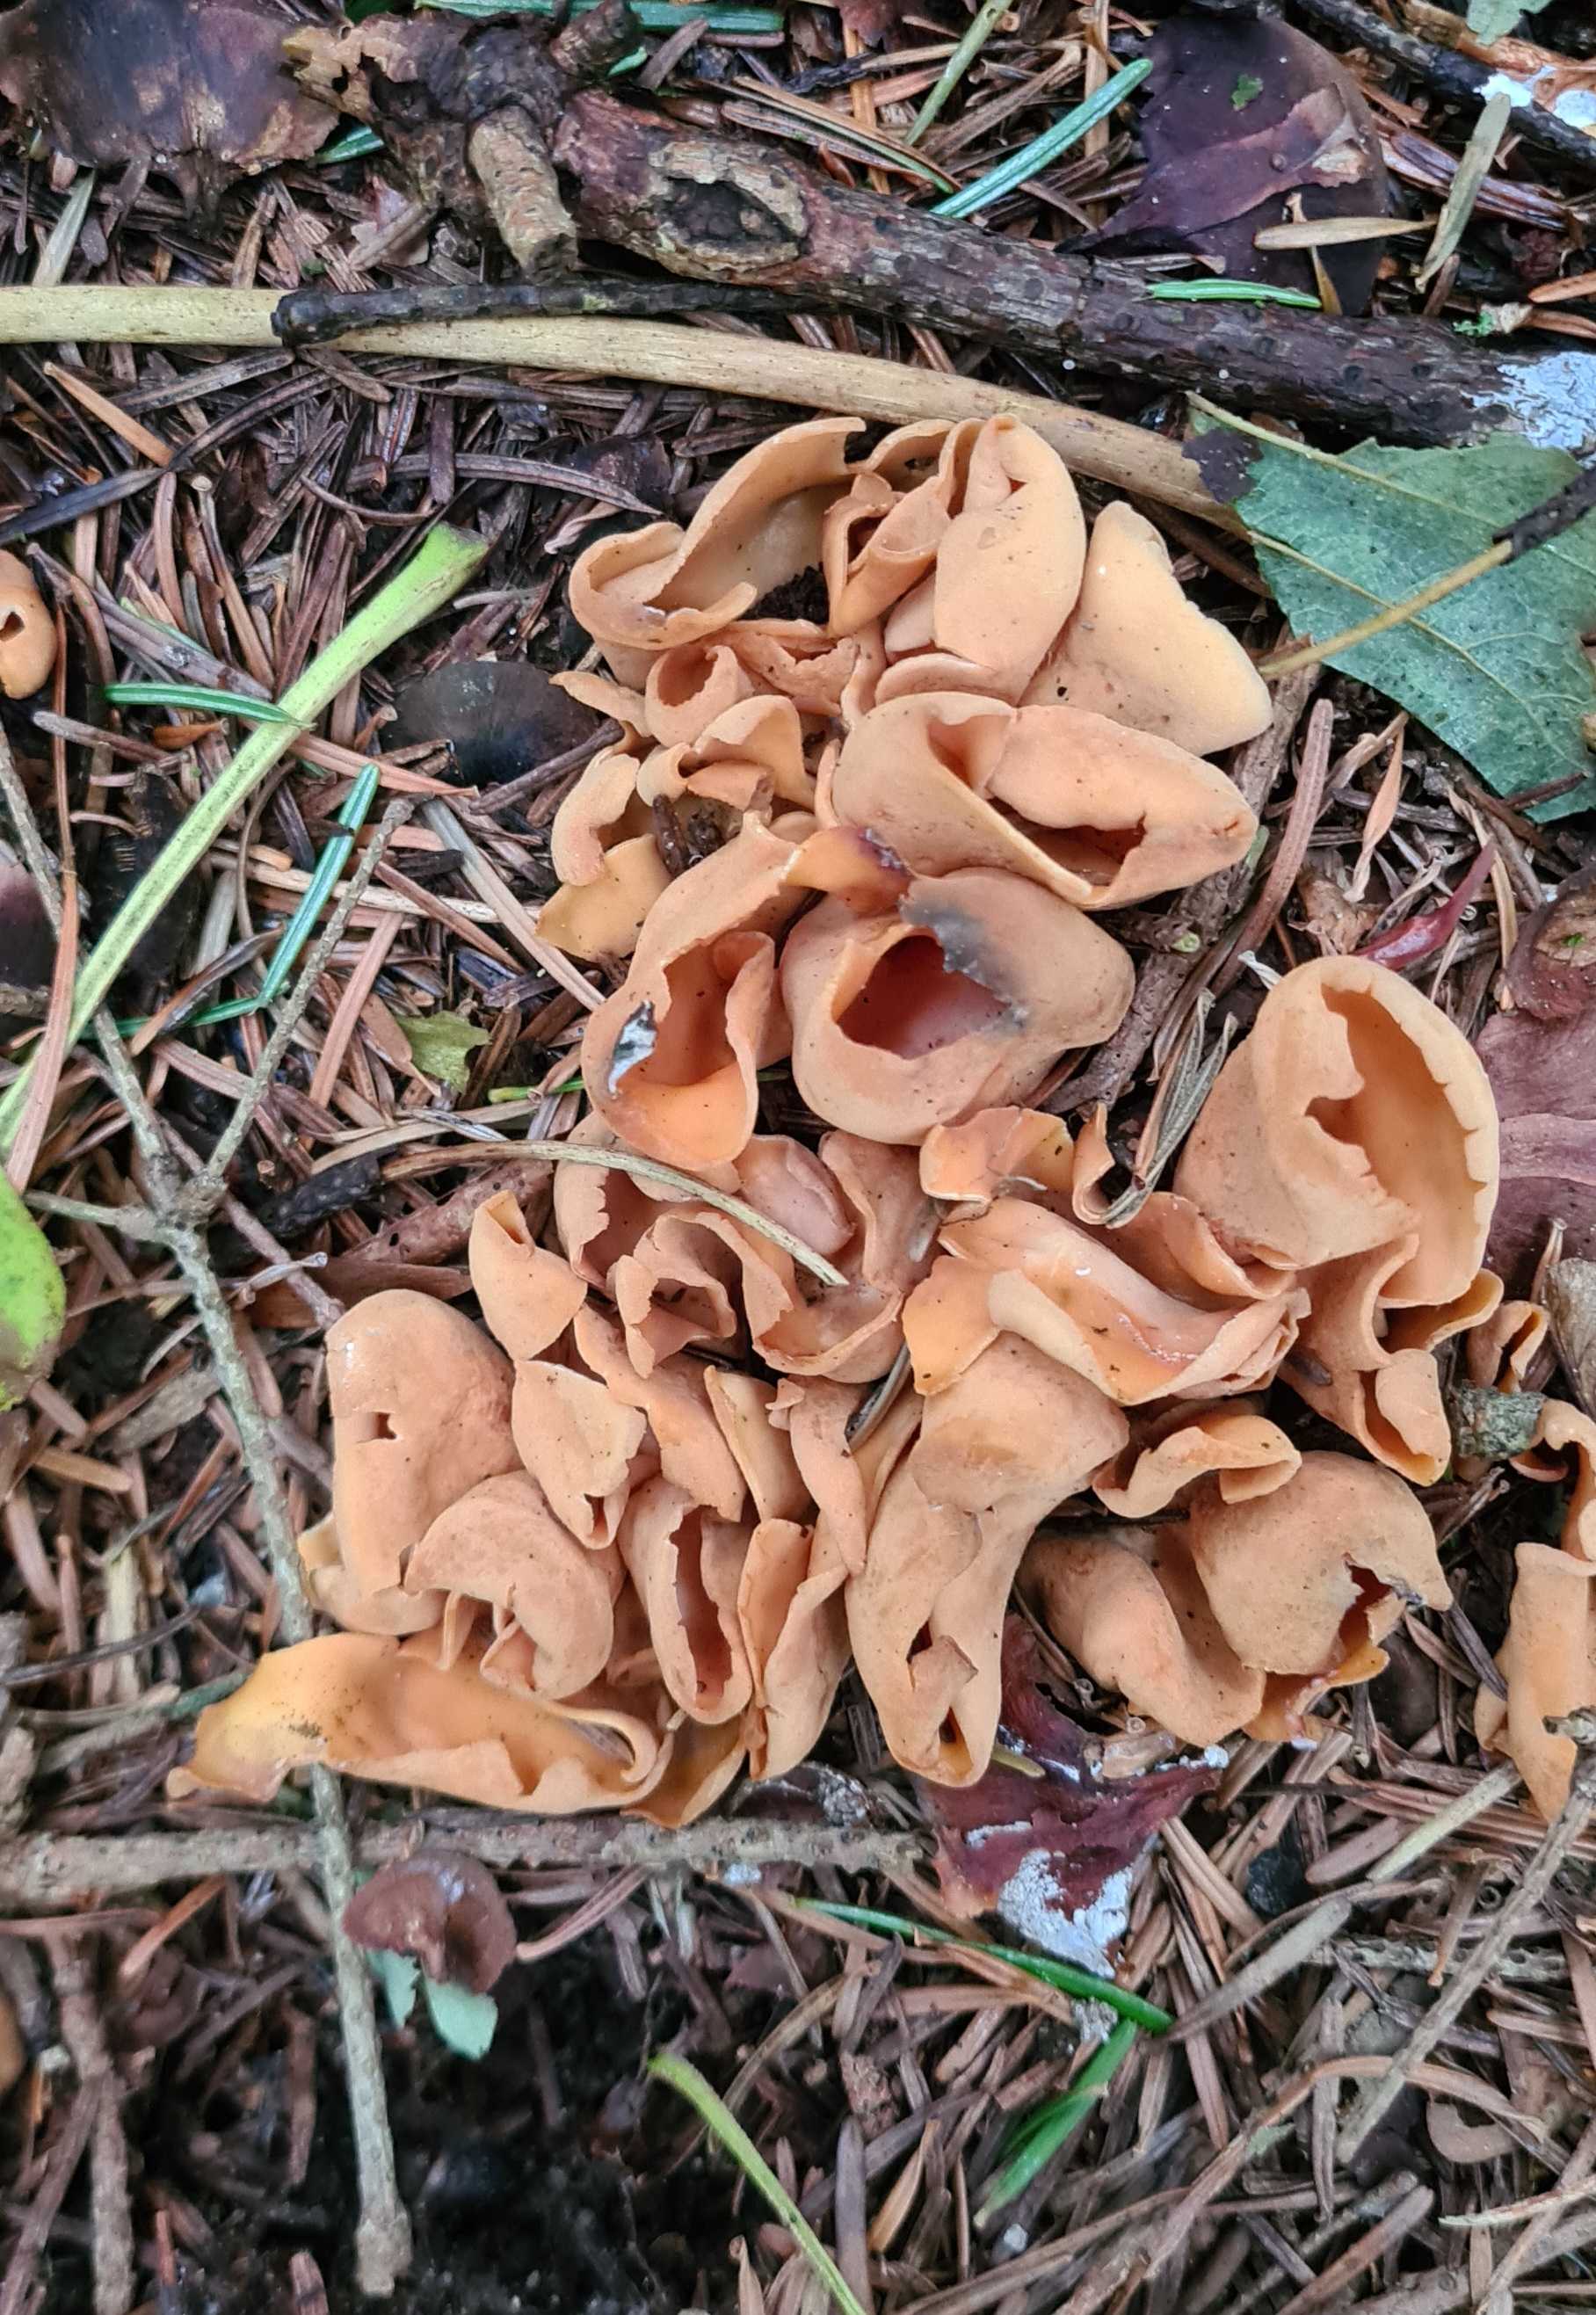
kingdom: Fungi
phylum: Ascomycota
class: Pezizomycetes
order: Pezizales
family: Otideaceae
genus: Otidea
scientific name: Otidea onotica
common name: æsel-ørebæger
